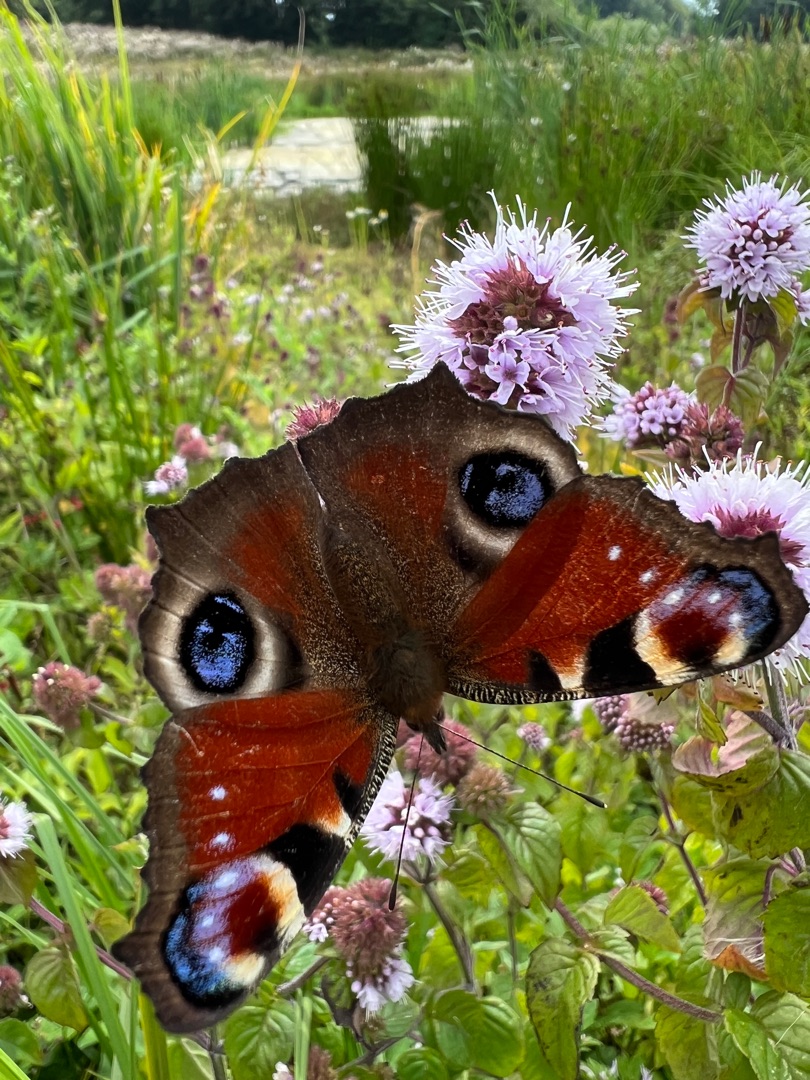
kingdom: Animalia
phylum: Arthropoda
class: Insecta
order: Lepidoptera
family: Nymphalidae
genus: Aglais
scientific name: Aglais io
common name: Dagpåfugleøje
